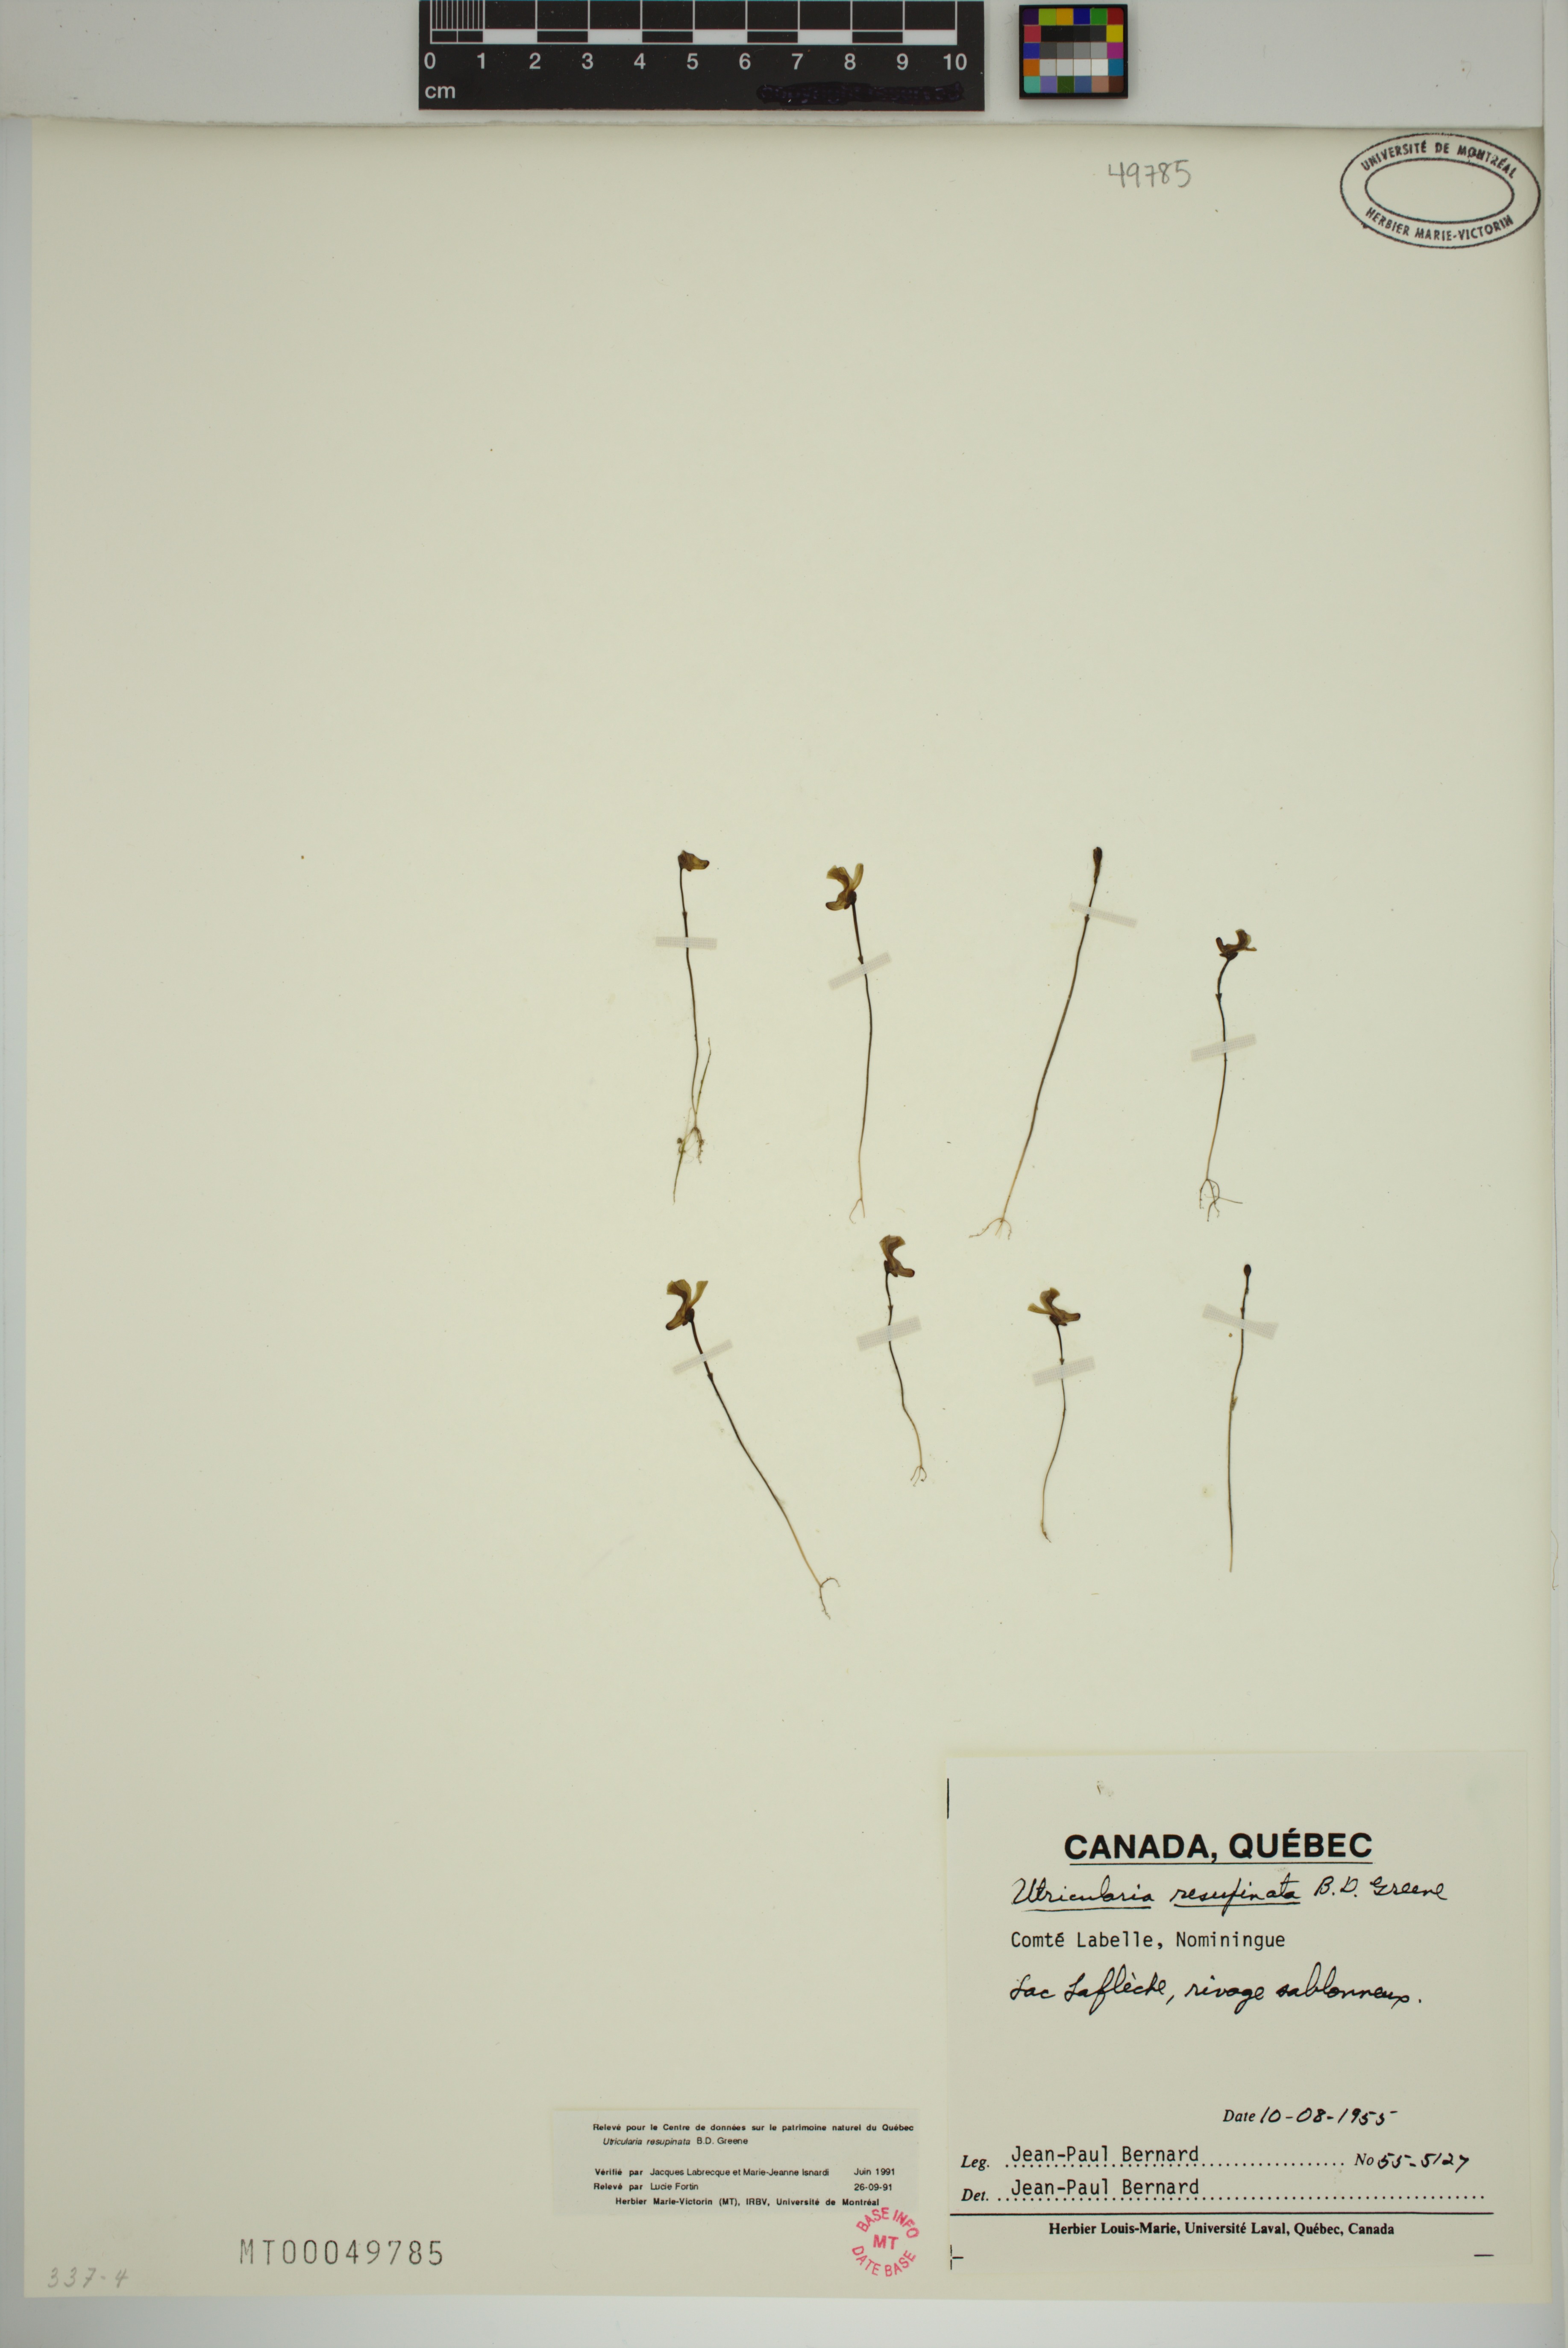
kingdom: Plantae
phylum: Tracheophyta
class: Magnoliopsida
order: Lamiales
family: Lentibulariaceae
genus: Utricularia
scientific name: Utricularia resupinata
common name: Northeastern bladderwort
